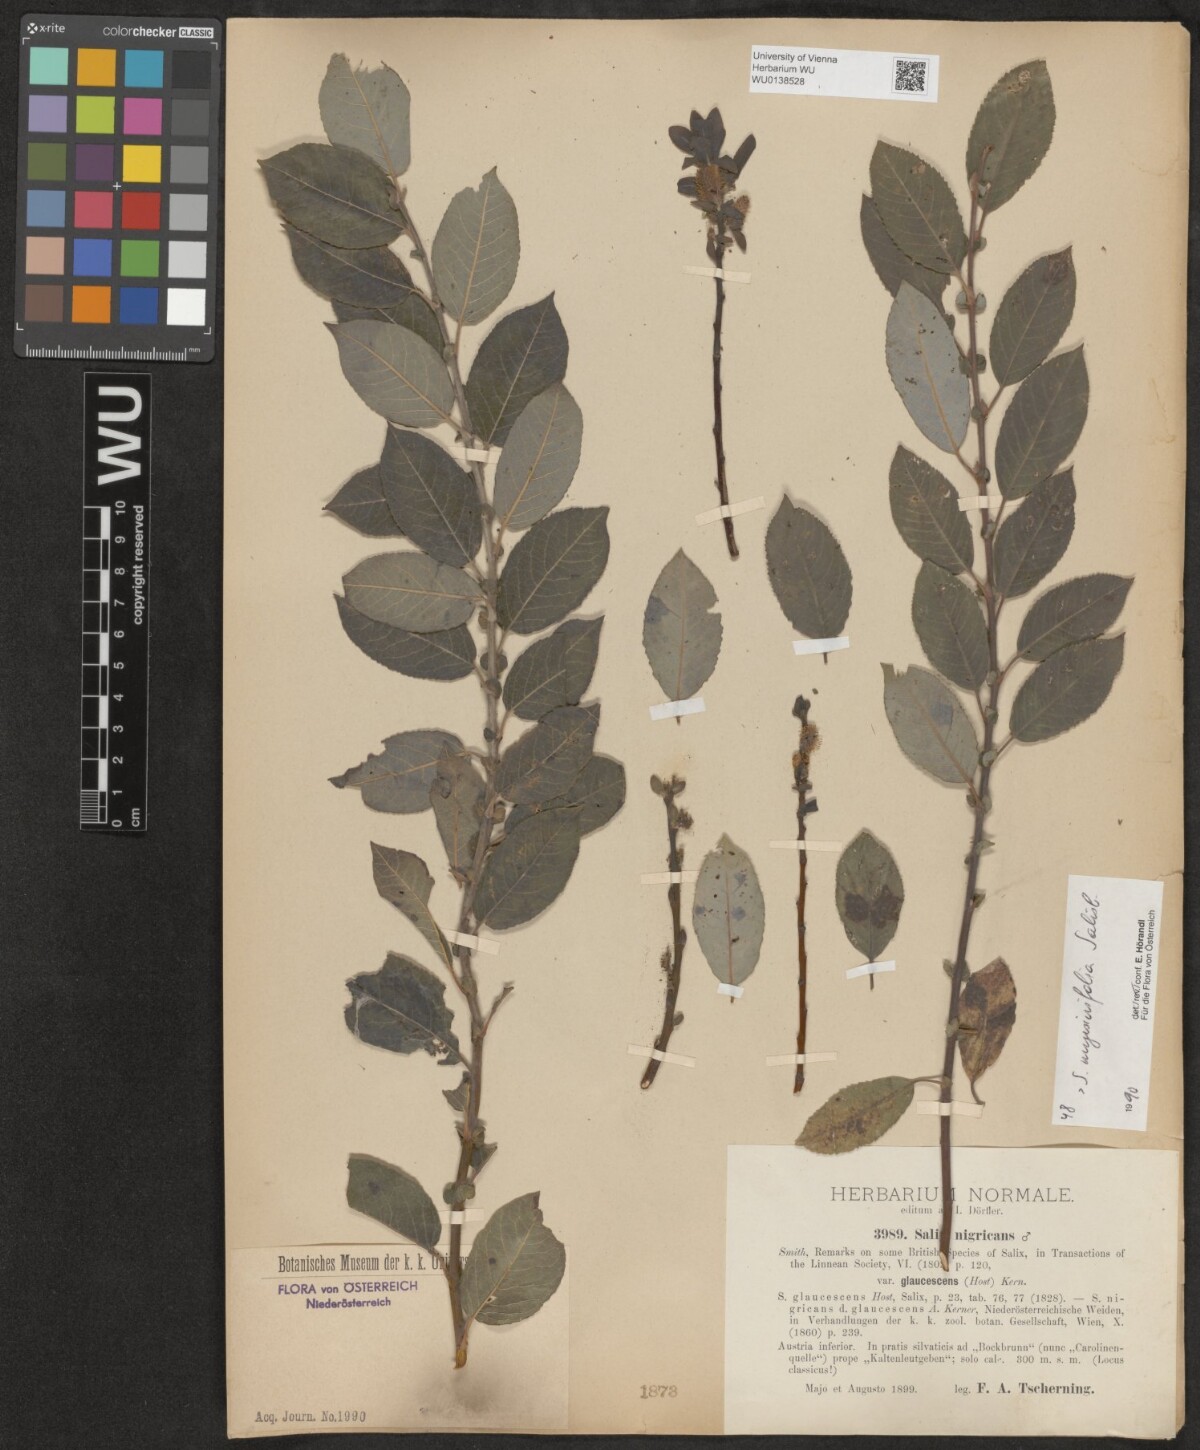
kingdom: Plantae
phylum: Tracheophyta
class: Magnoliopsida
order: Malpighiales
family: Salicaceae
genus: Salix
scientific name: Salix myrsinifolia
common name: Dark-leaved willow
